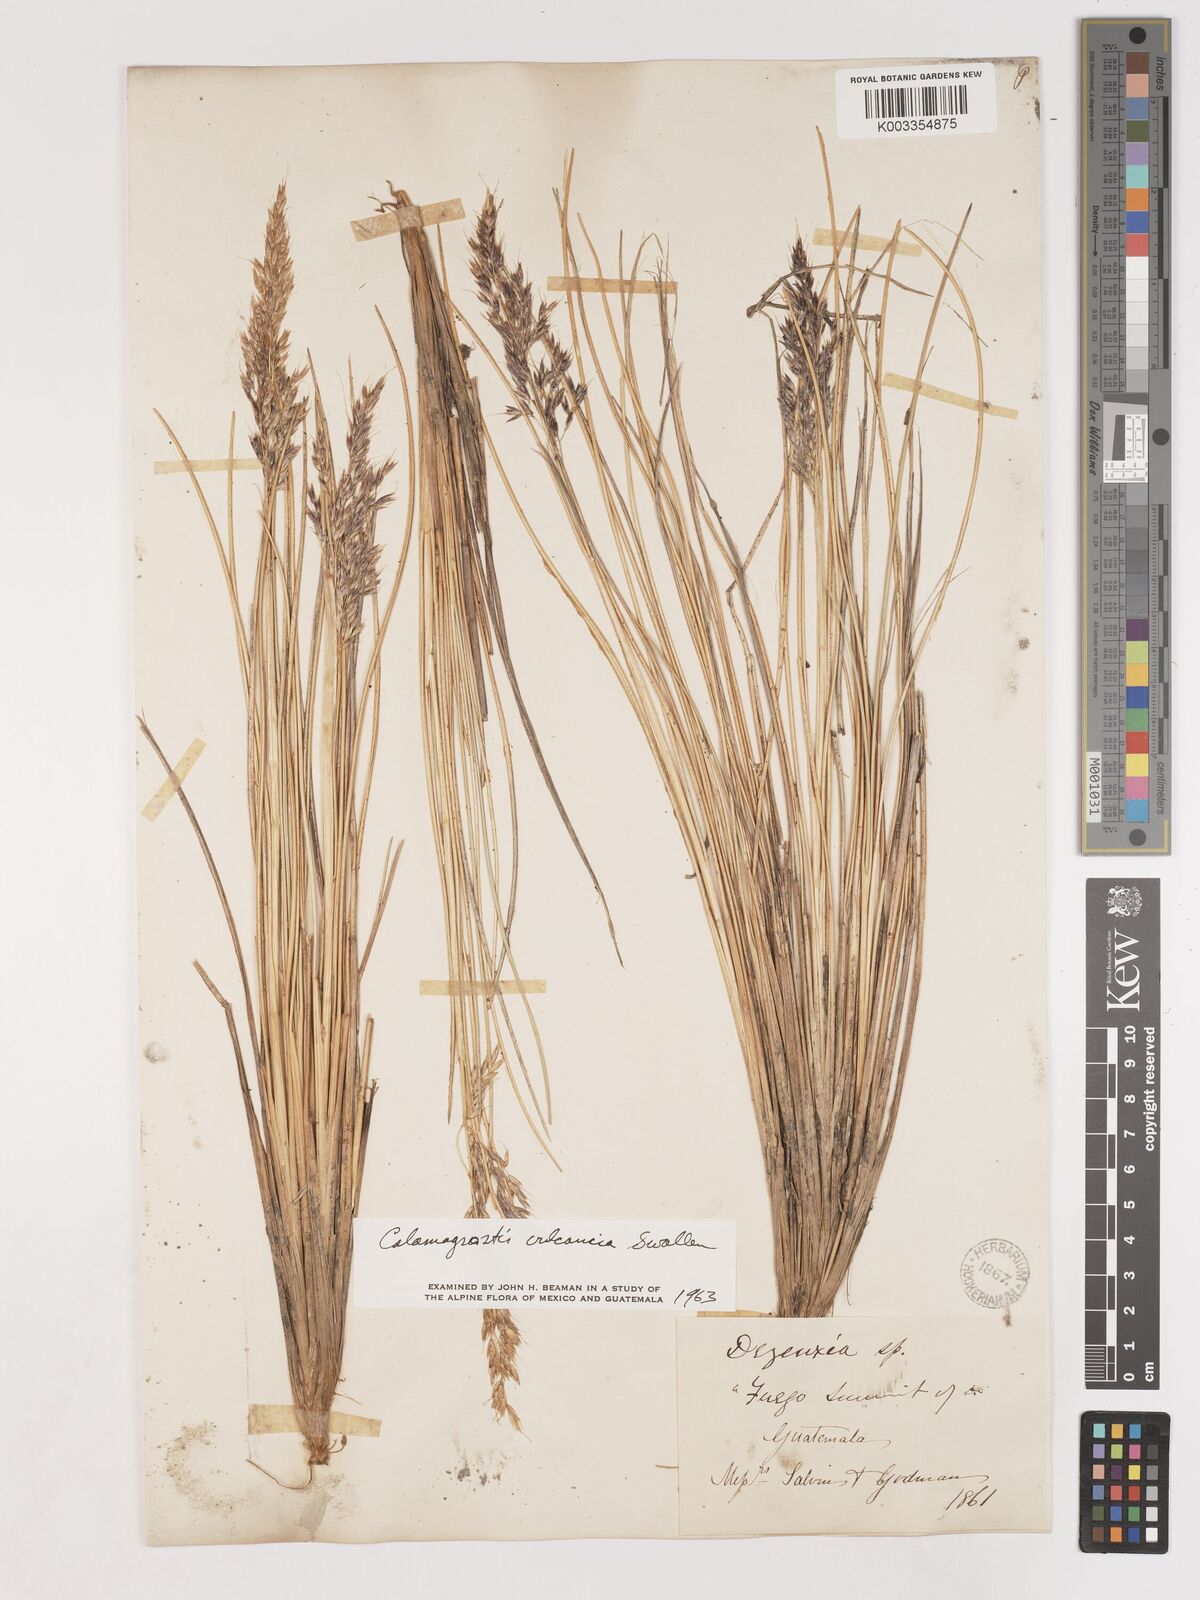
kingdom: Plantae
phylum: Tracheophyta
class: Liliopsida
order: Poales
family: Poaceae
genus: Poa
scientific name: Poa obvallata
